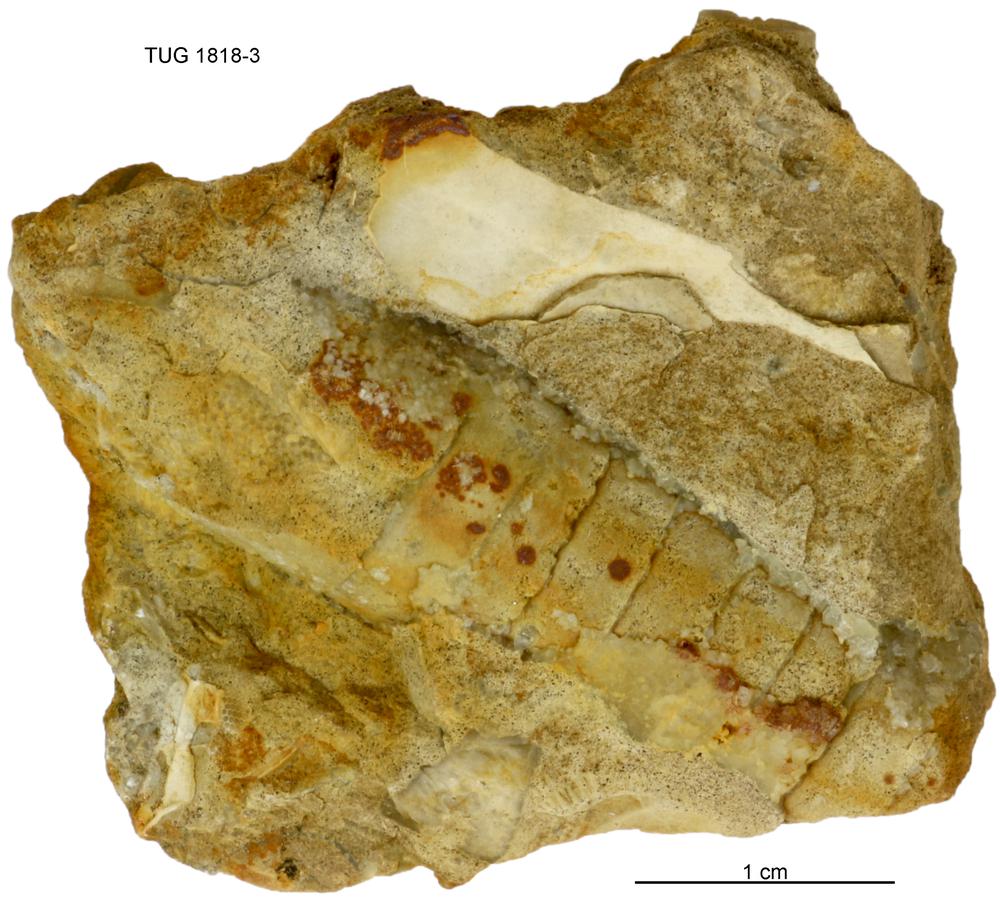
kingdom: Animalia
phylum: Mollusca
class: Cephalopoda
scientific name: Cephalopoda
